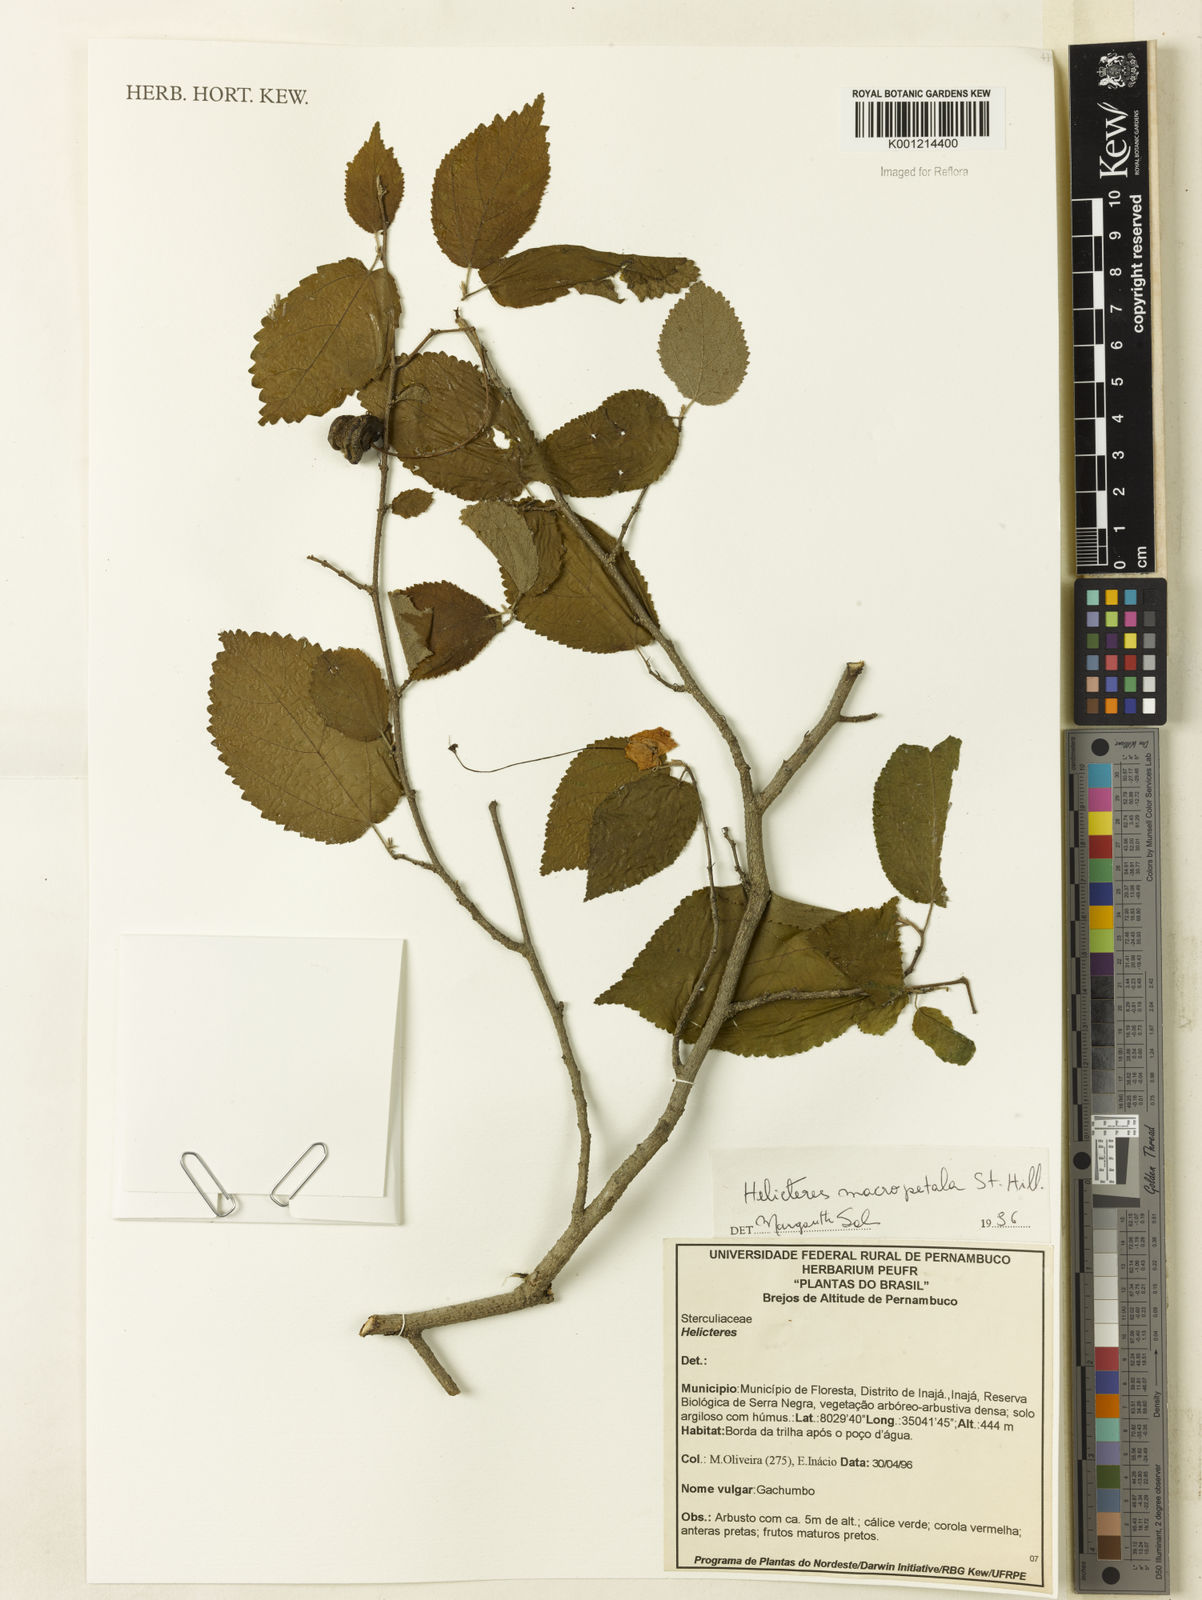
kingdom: Plantae
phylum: Tracheophyta
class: Magnoliopsida
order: Malvales
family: Malvaceae
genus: Helicteres
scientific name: Helicteres
